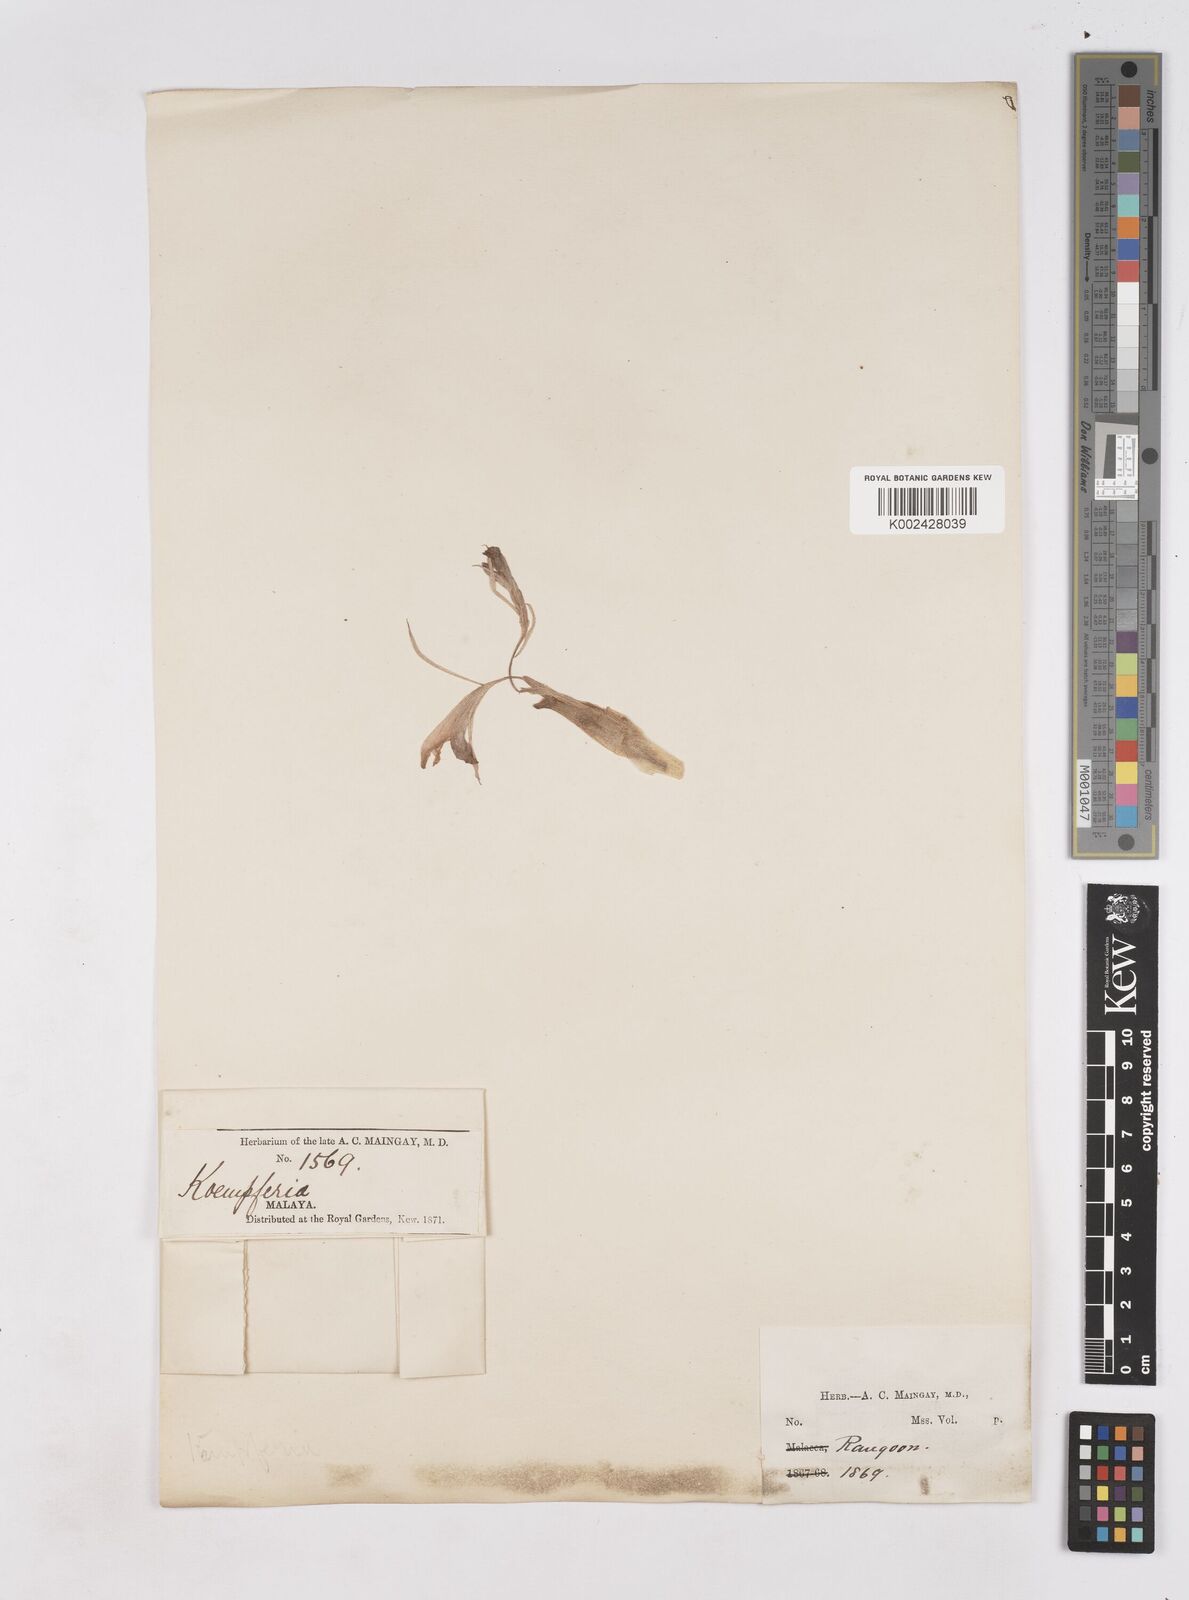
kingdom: Plantae
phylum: Tracheophyta
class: Liliopsida
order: Zingiberales
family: Zingiberaceae
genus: Kaempferia
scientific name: Kaempferia rotunda
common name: Tropical-crocus
